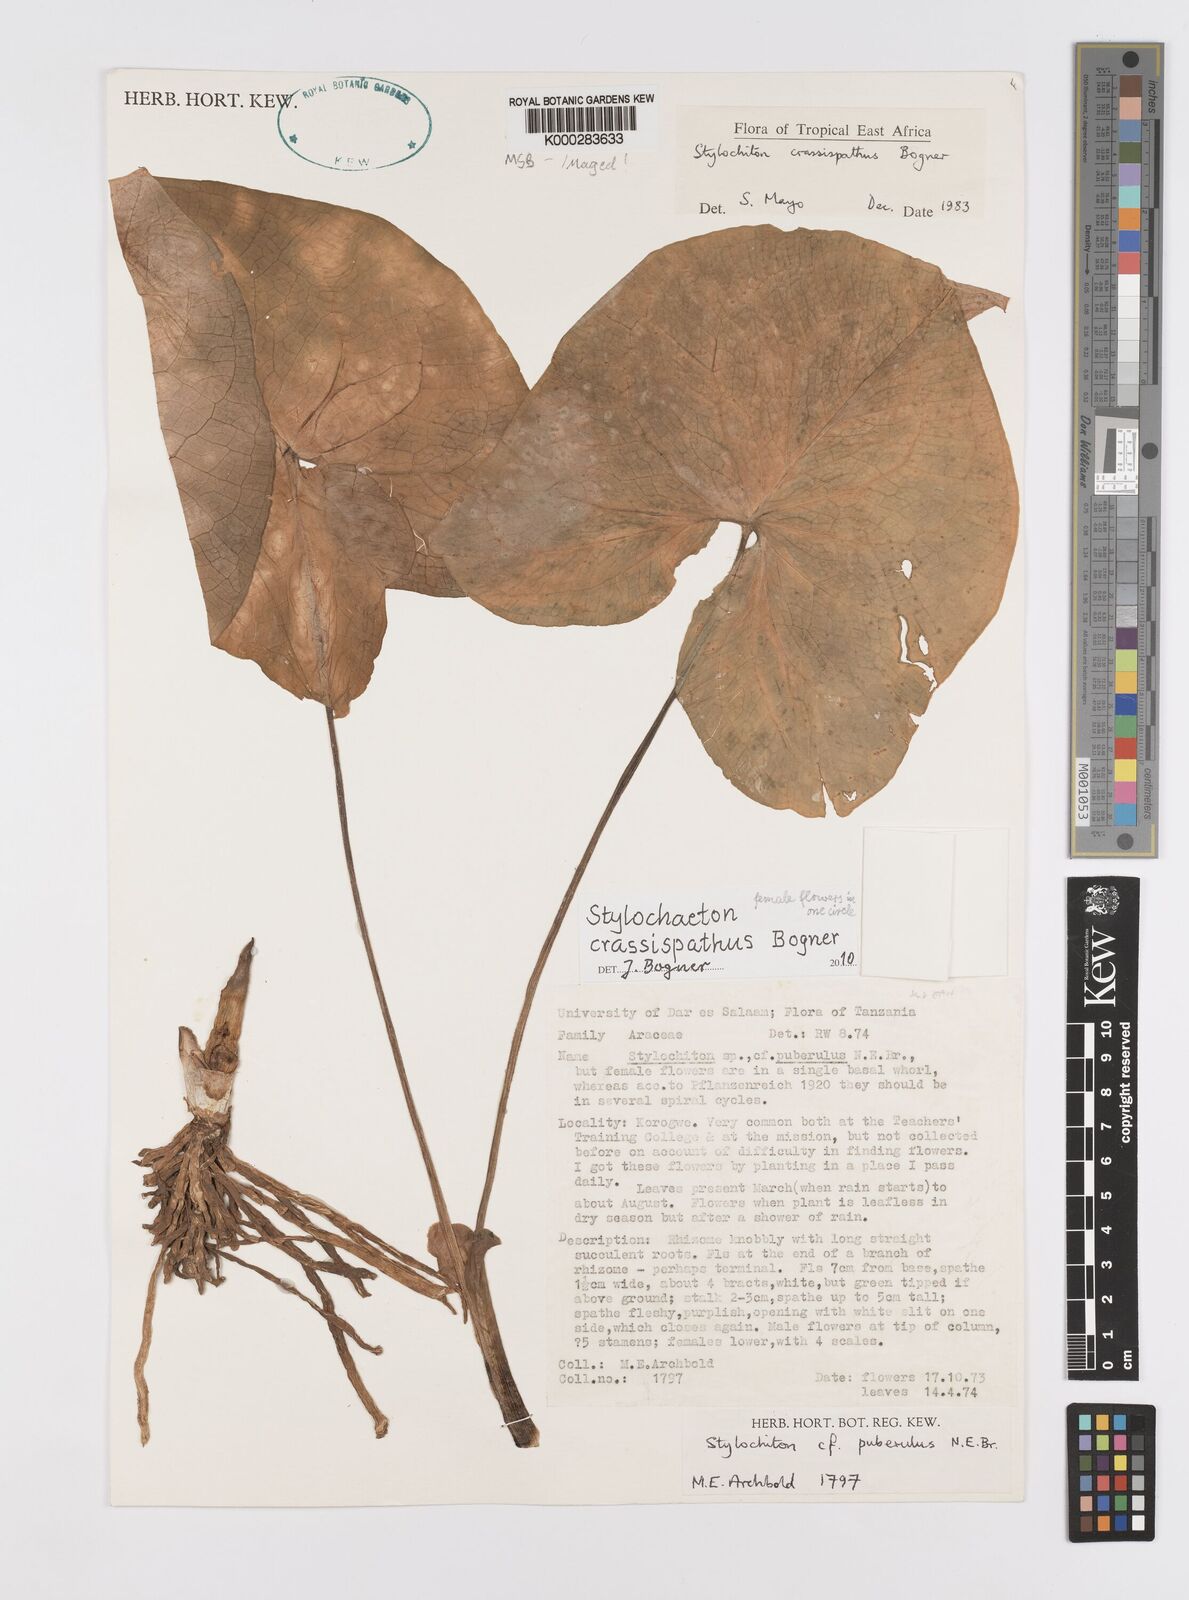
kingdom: Plantae
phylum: Tracheophyta
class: Liliopsida
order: Alismatales
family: Araceae
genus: Stylochaeton
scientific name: Stylochaeton crassispathum
